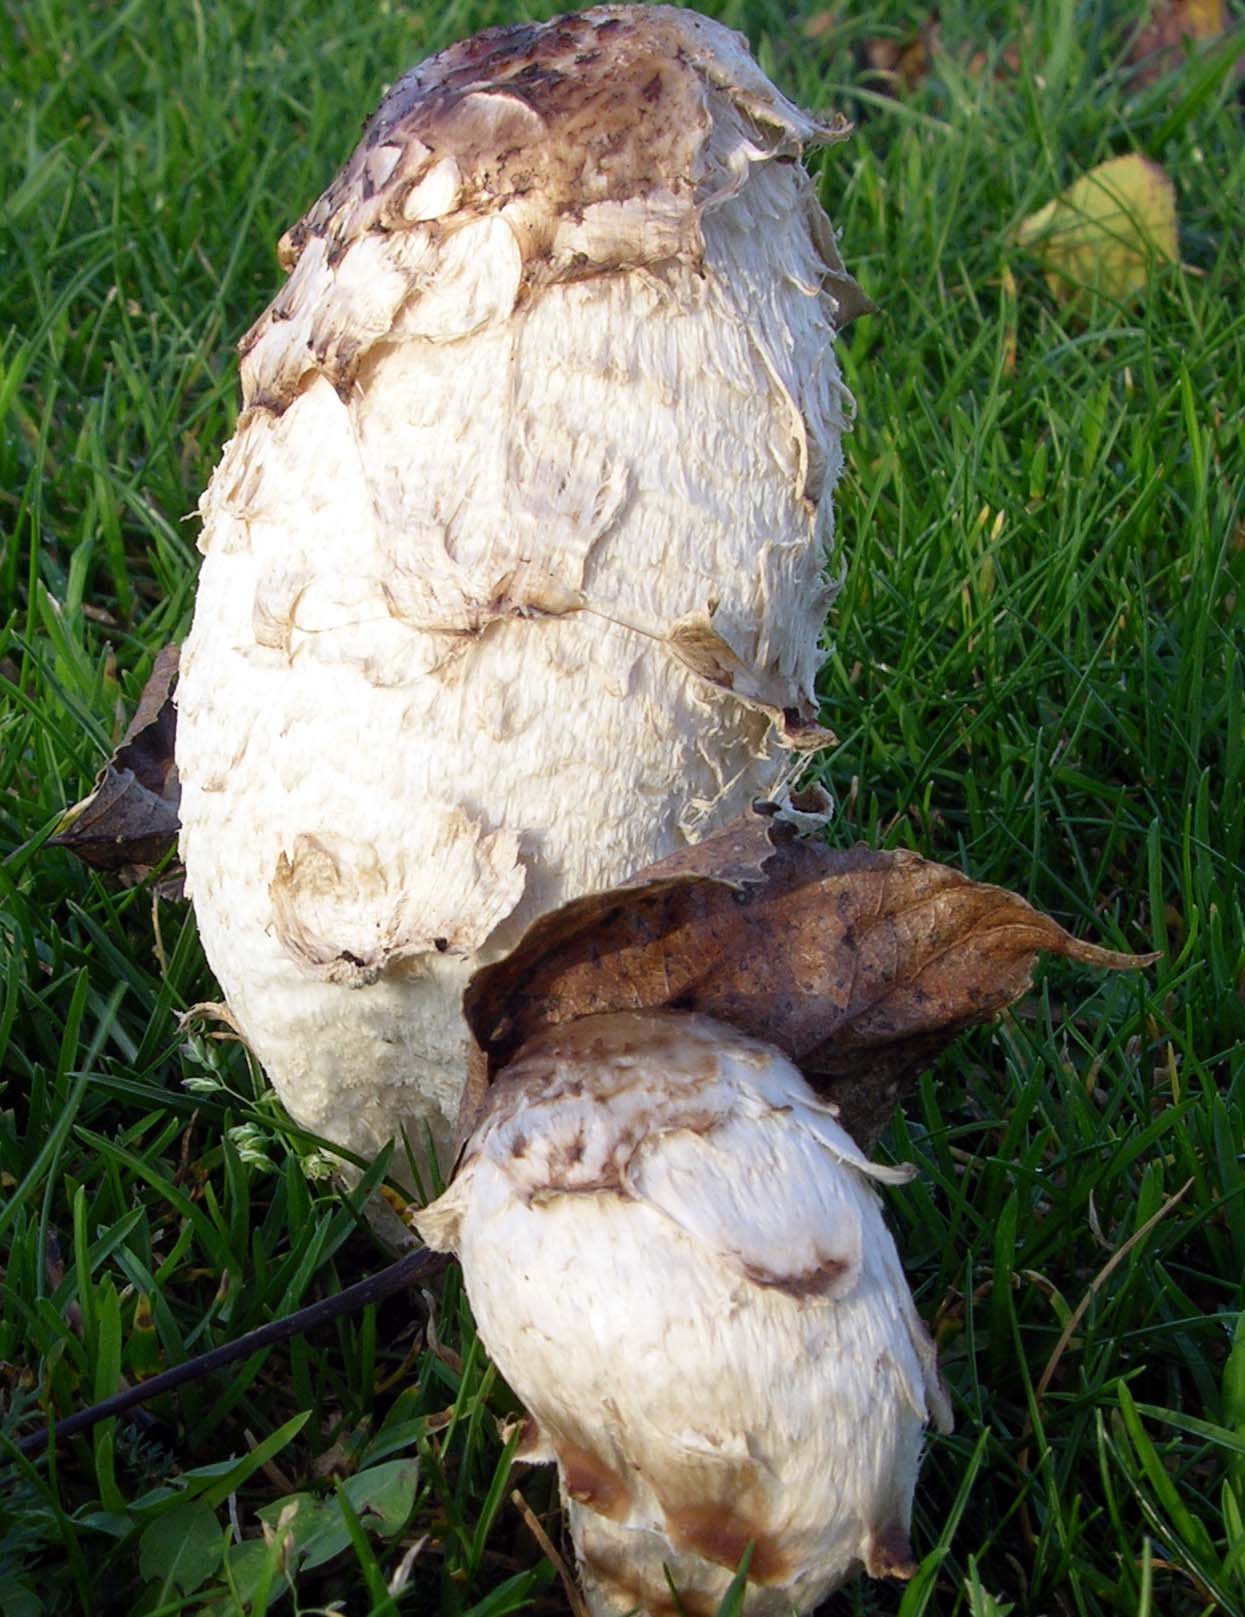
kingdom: Fungi
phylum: Basidiomycota
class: Agaricomycetes
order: Agaricales
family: Agaricaceae
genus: Coprinus
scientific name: Coprinus comatus
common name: stor parykhat
